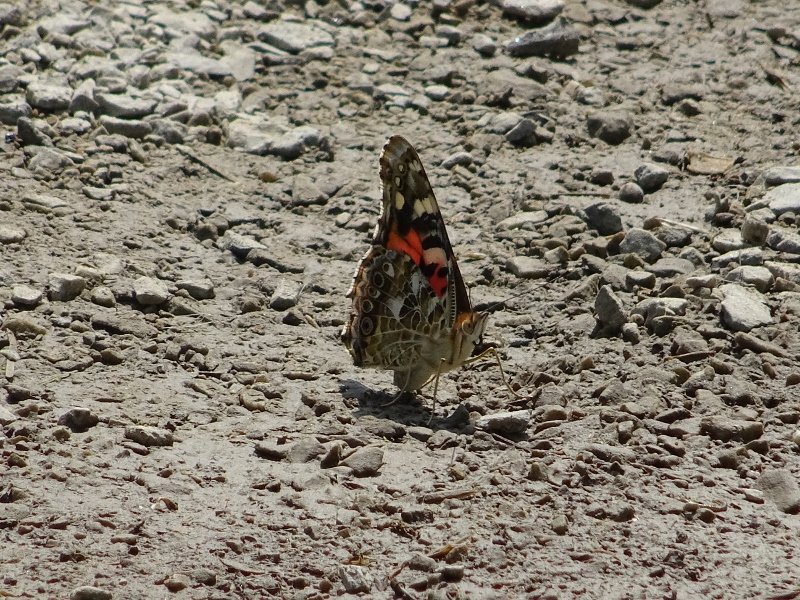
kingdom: Animalia
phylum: Arthropoda
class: Insecta
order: Lepidoptera
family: Nymphalidae
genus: Vanessa
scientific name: Vanessa cardui
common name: Painted Lady
